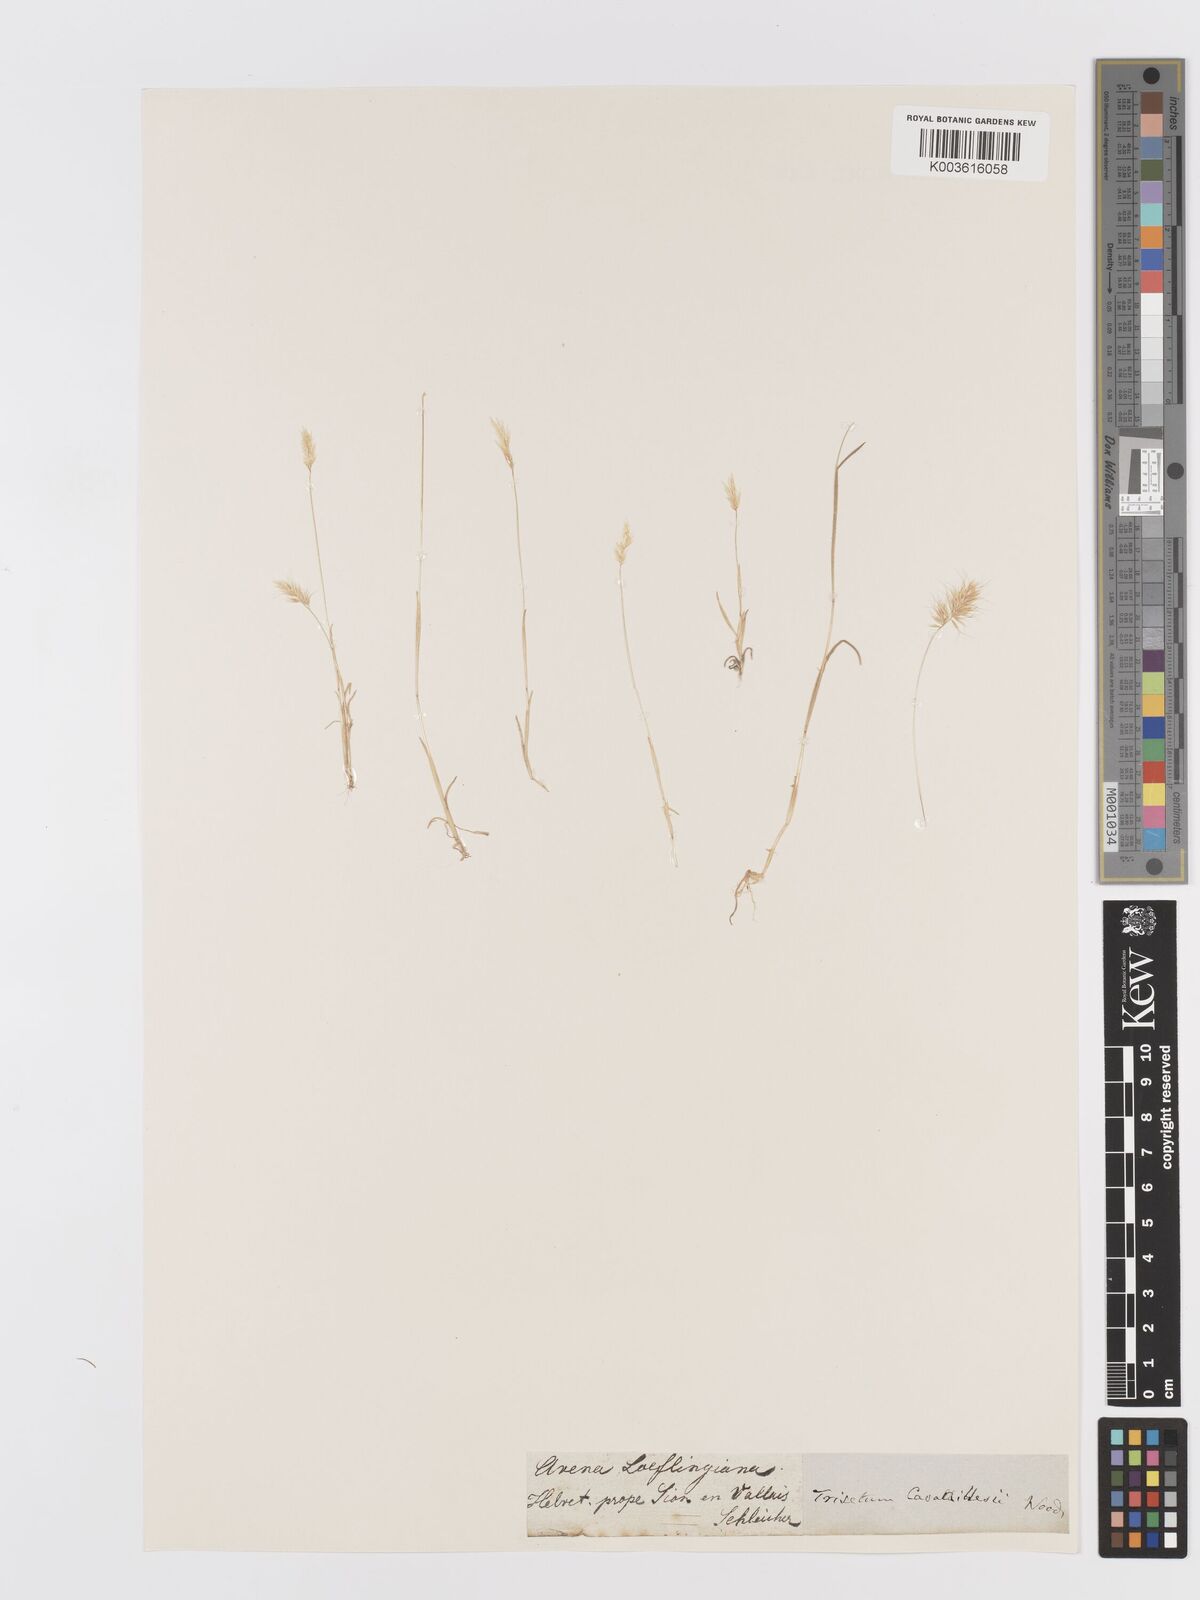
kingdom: Plantae
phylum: Tracheophyta
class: Liliopsida
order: Poales
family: Poaceae
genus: Trisetaria
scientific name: Trisetaria loeflingiana
